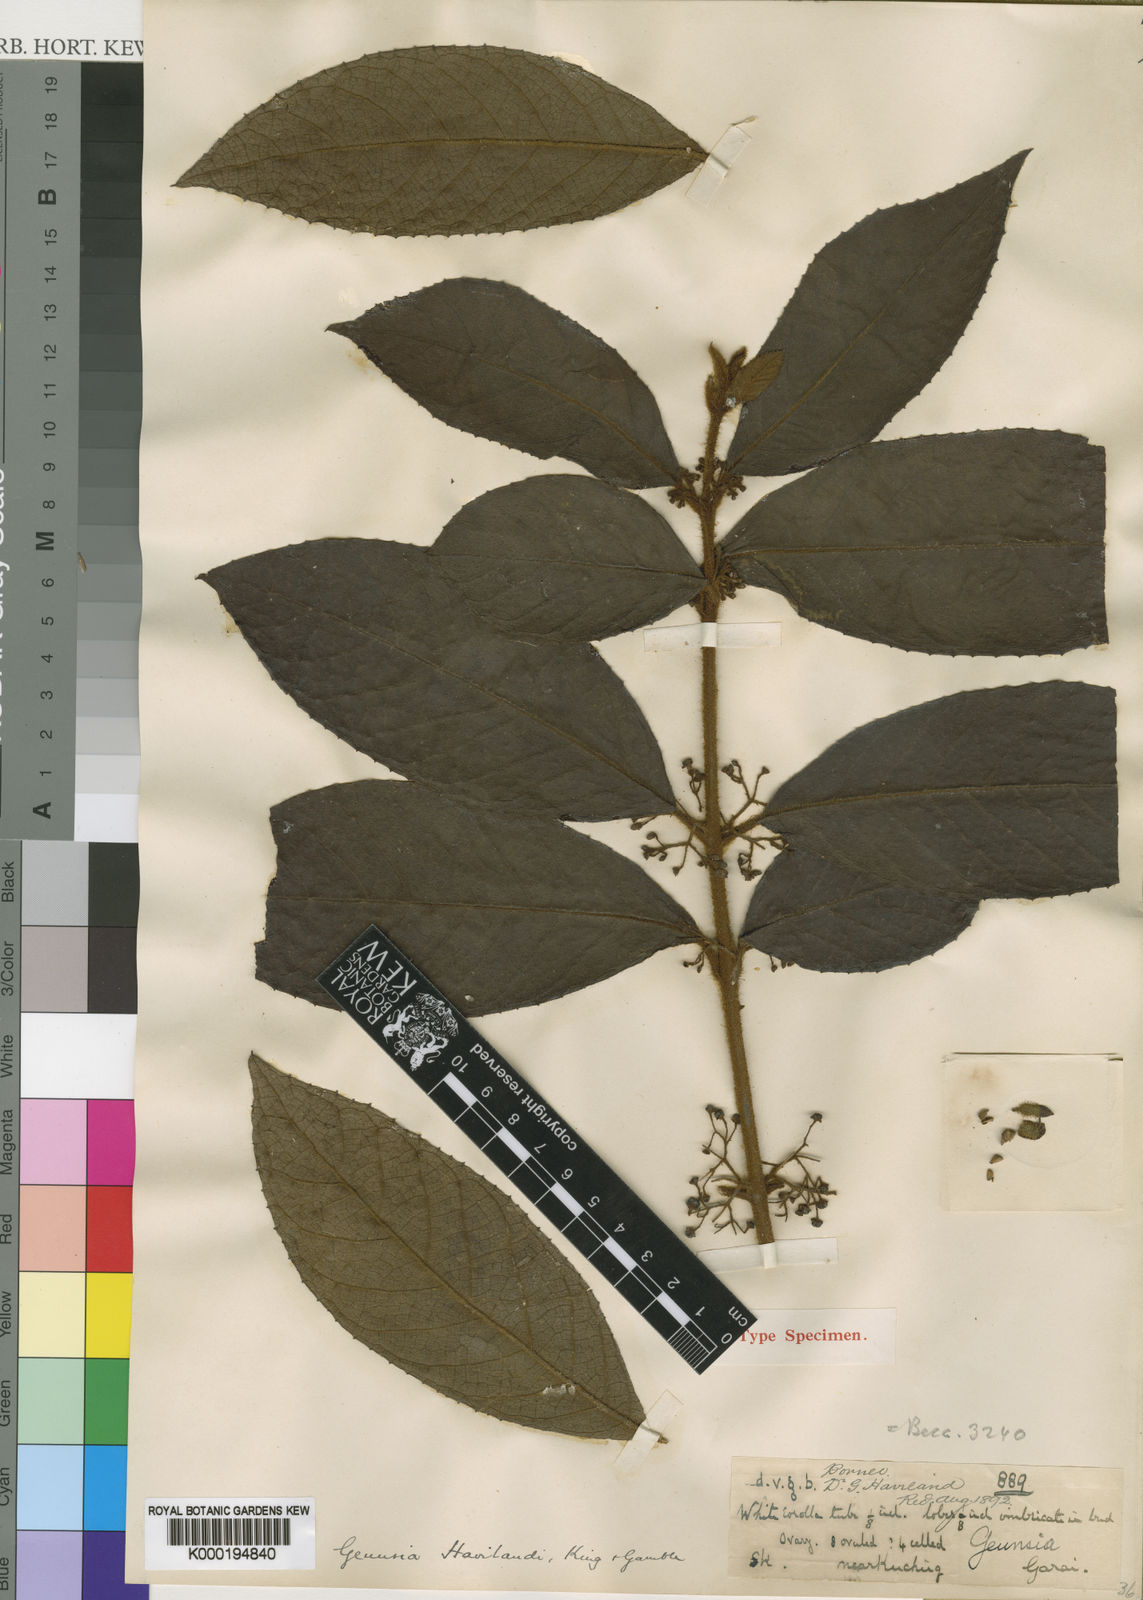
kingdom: Plantae
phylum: Tracheophyta
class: Magnoliopsida
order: Lamiales
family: Lamiaceae
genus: Callicarpa
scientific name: Callicarpa havilandii
